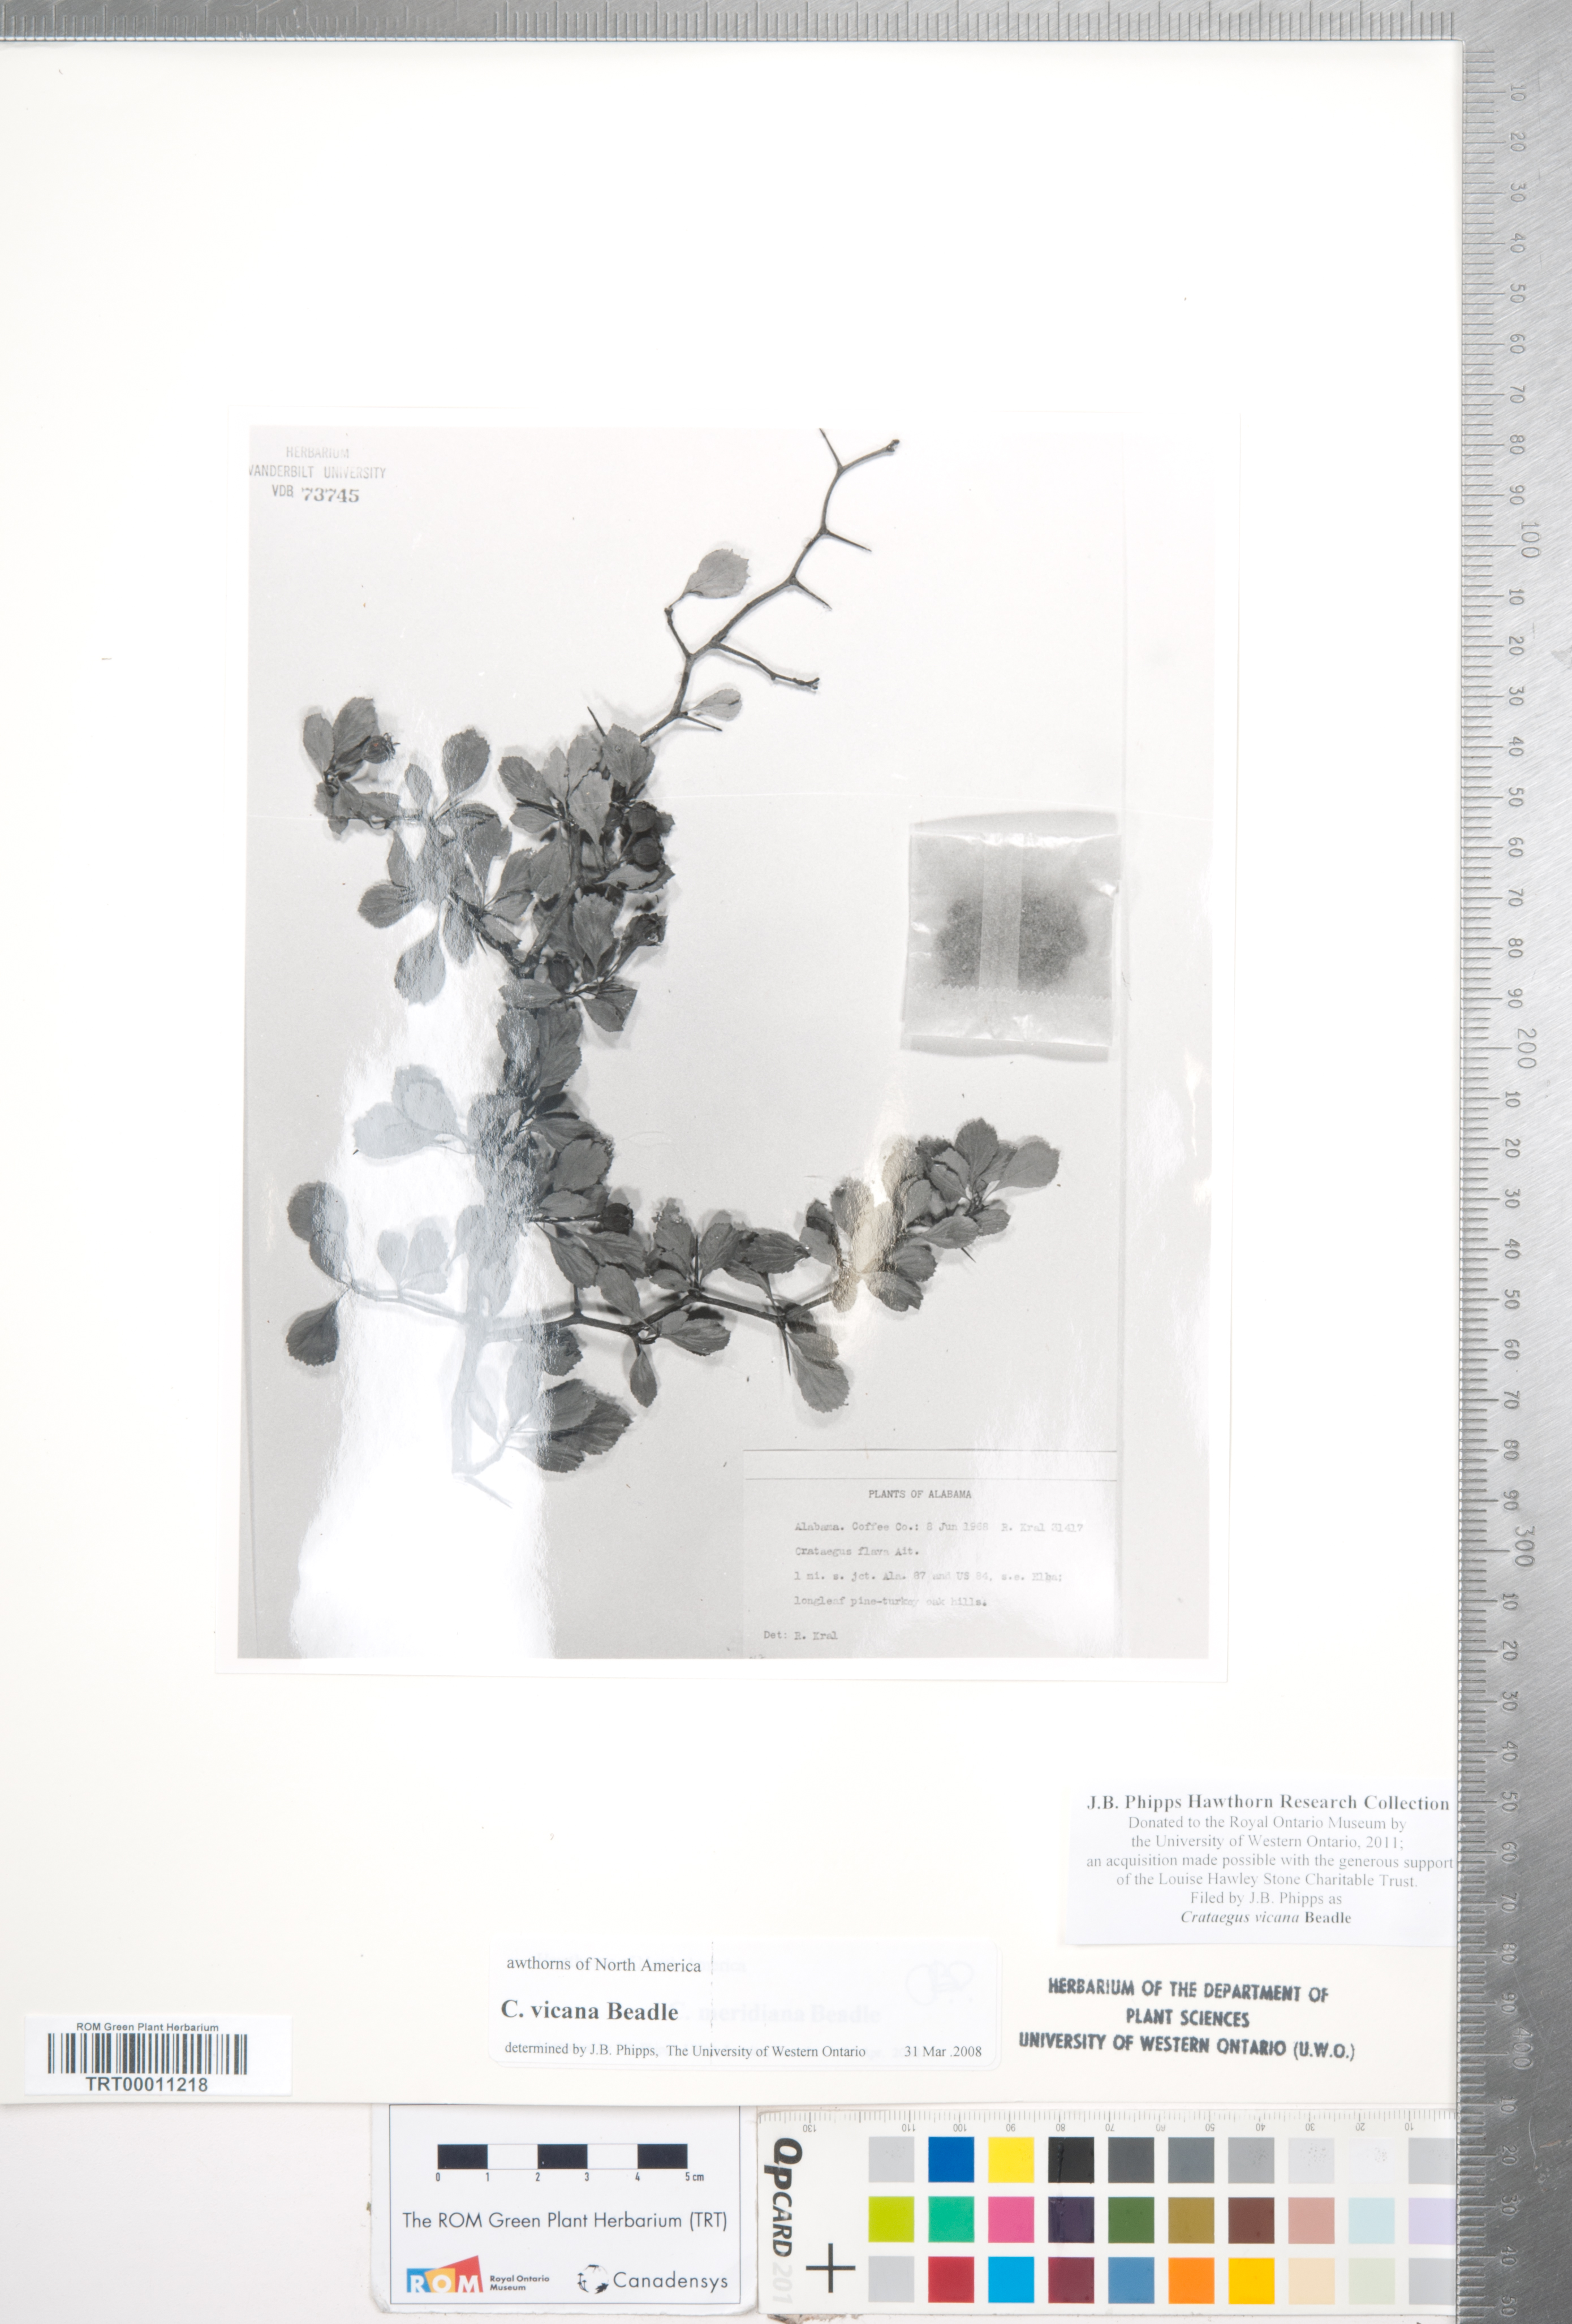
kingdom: Plantae
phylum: Tracheophyta
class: Magnoliopsida
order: Rosales
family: Rosaceae
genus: Crataegus
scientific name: Crataegus lassa
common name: Florida hawthorn
